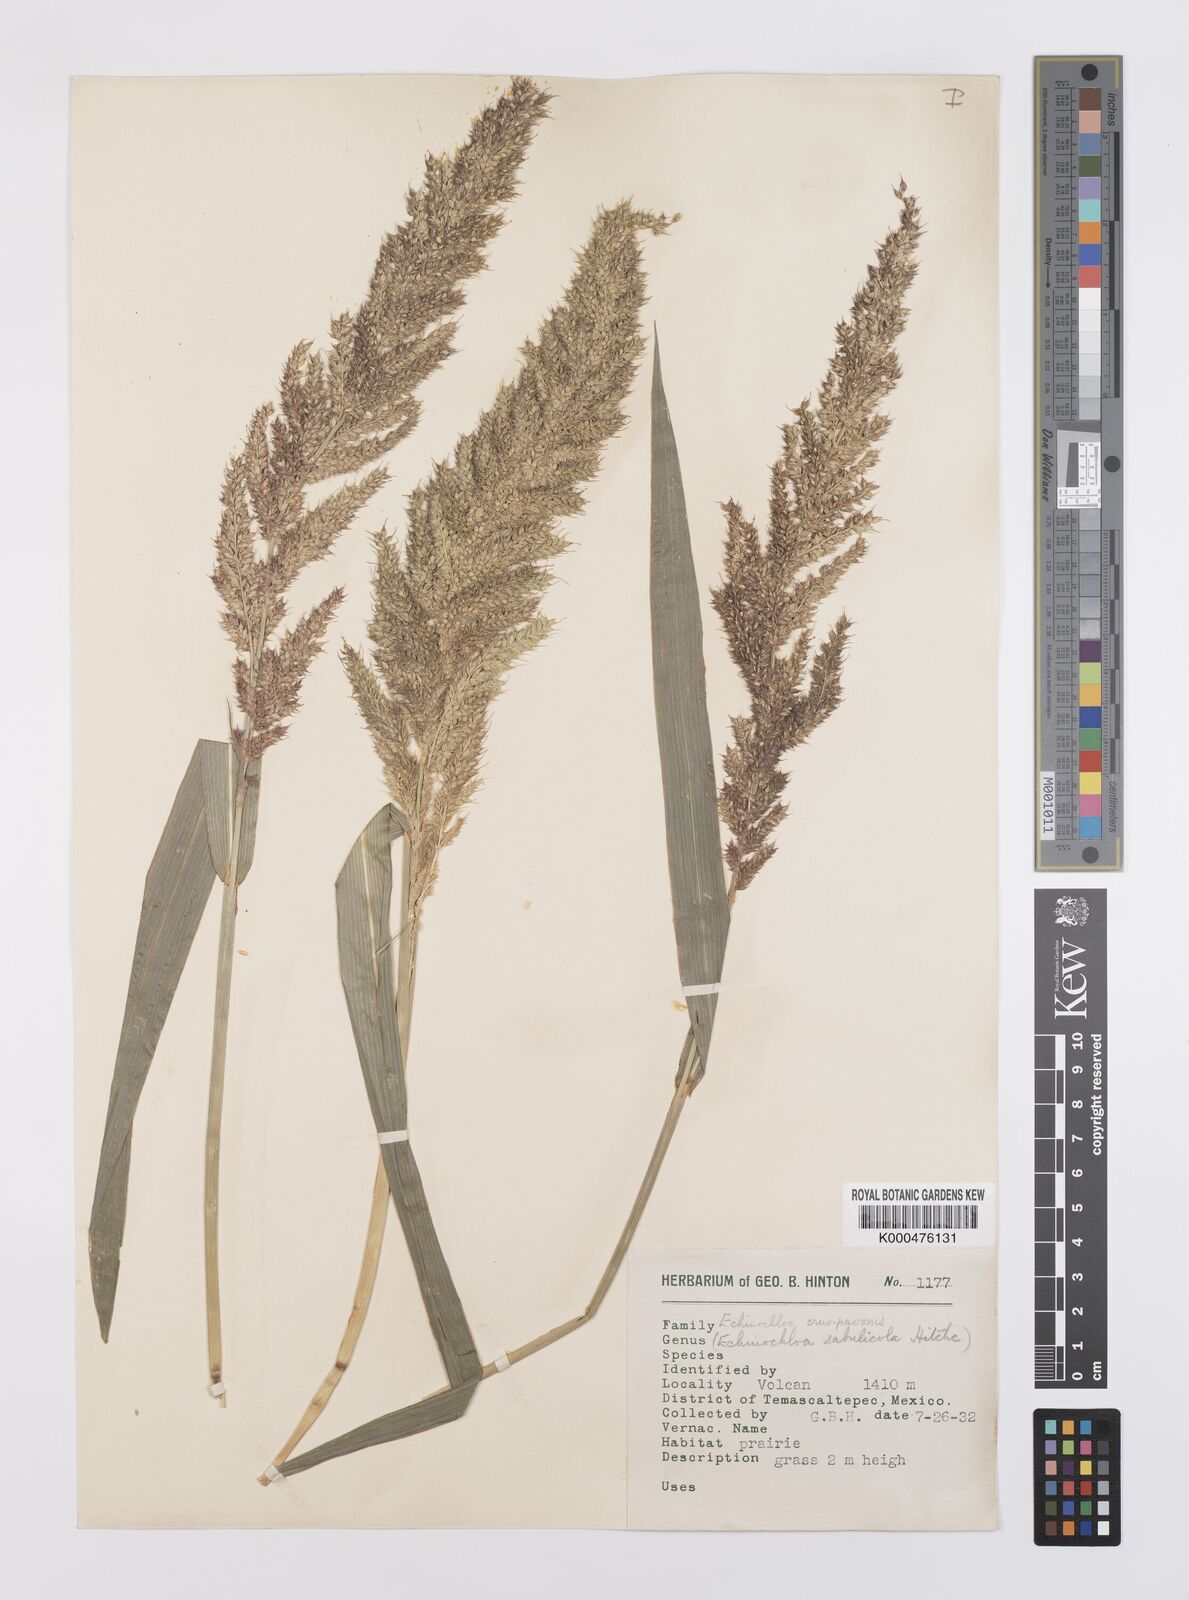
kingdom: Plantae
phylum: Tracheophyta
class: Liliopsida
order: Poales
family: Poaceae
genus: Echinochloa
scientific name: Echinochloa crus-pavonis
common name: Gulf cockspur grass
